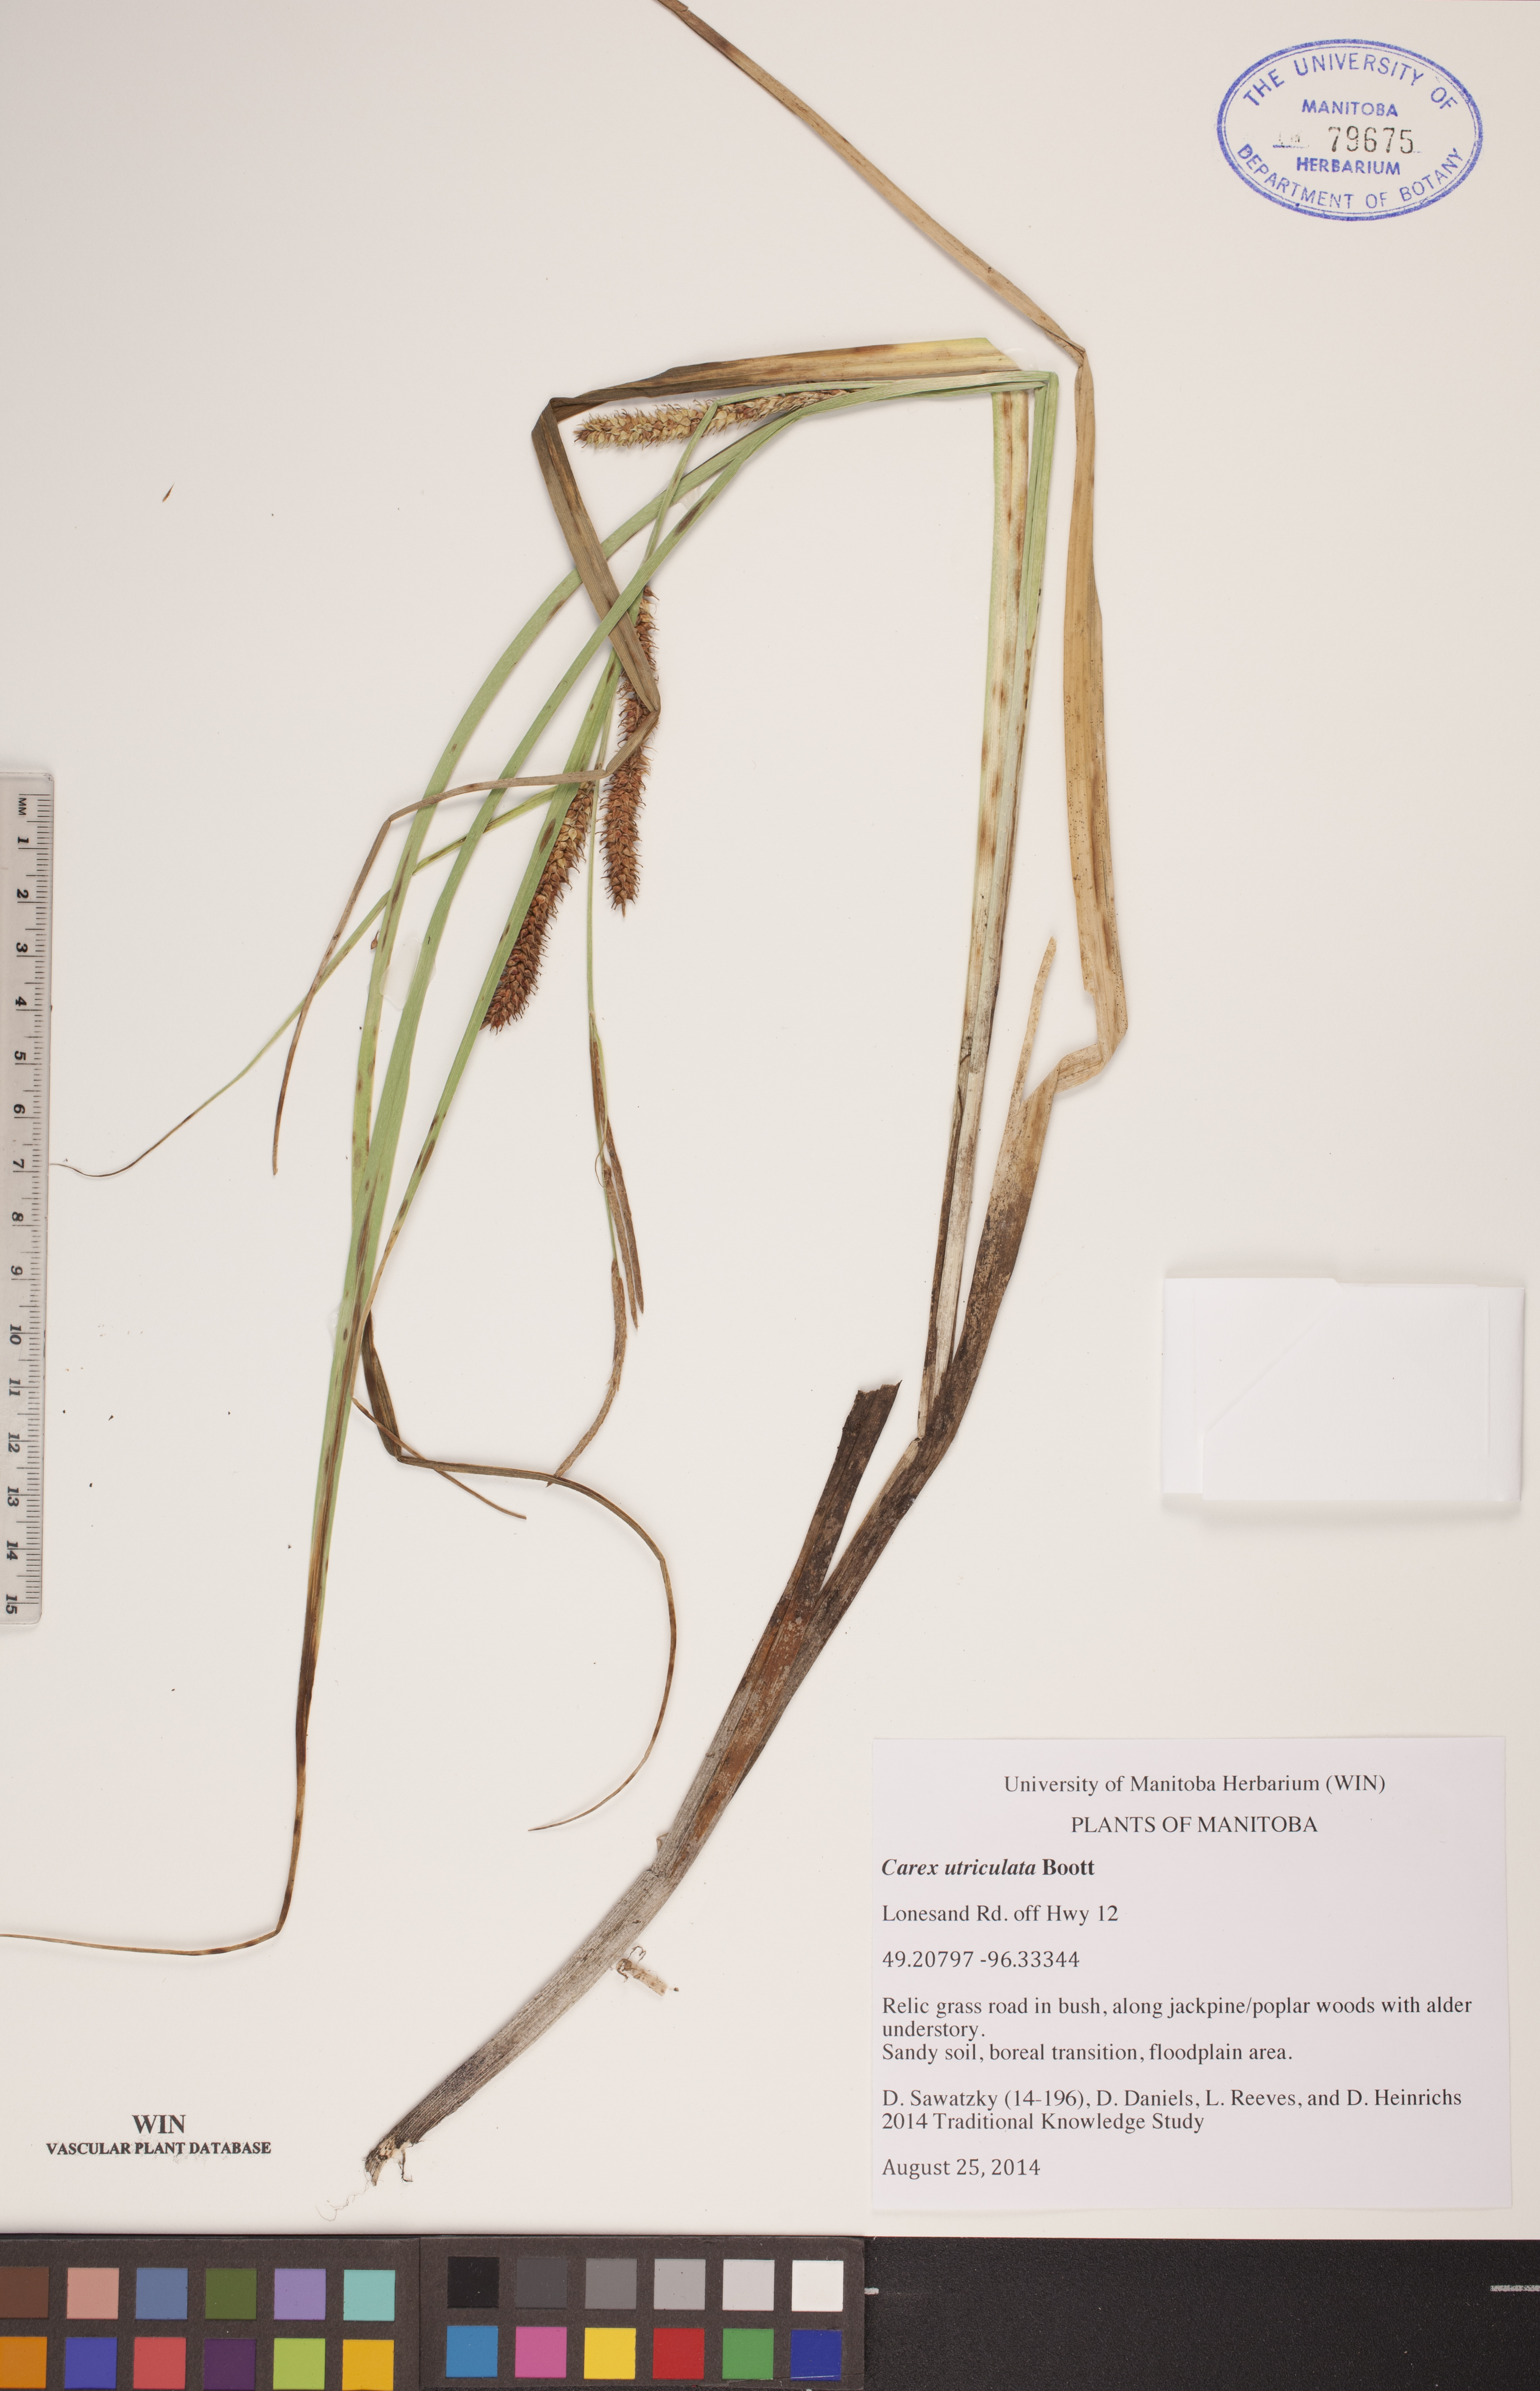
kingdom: Plantae
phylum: Tracheophyta
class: Liliopsida
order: Poales
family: Cyperaceae
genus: Carex
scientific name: Carex utriculata
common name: Beaked sedge
